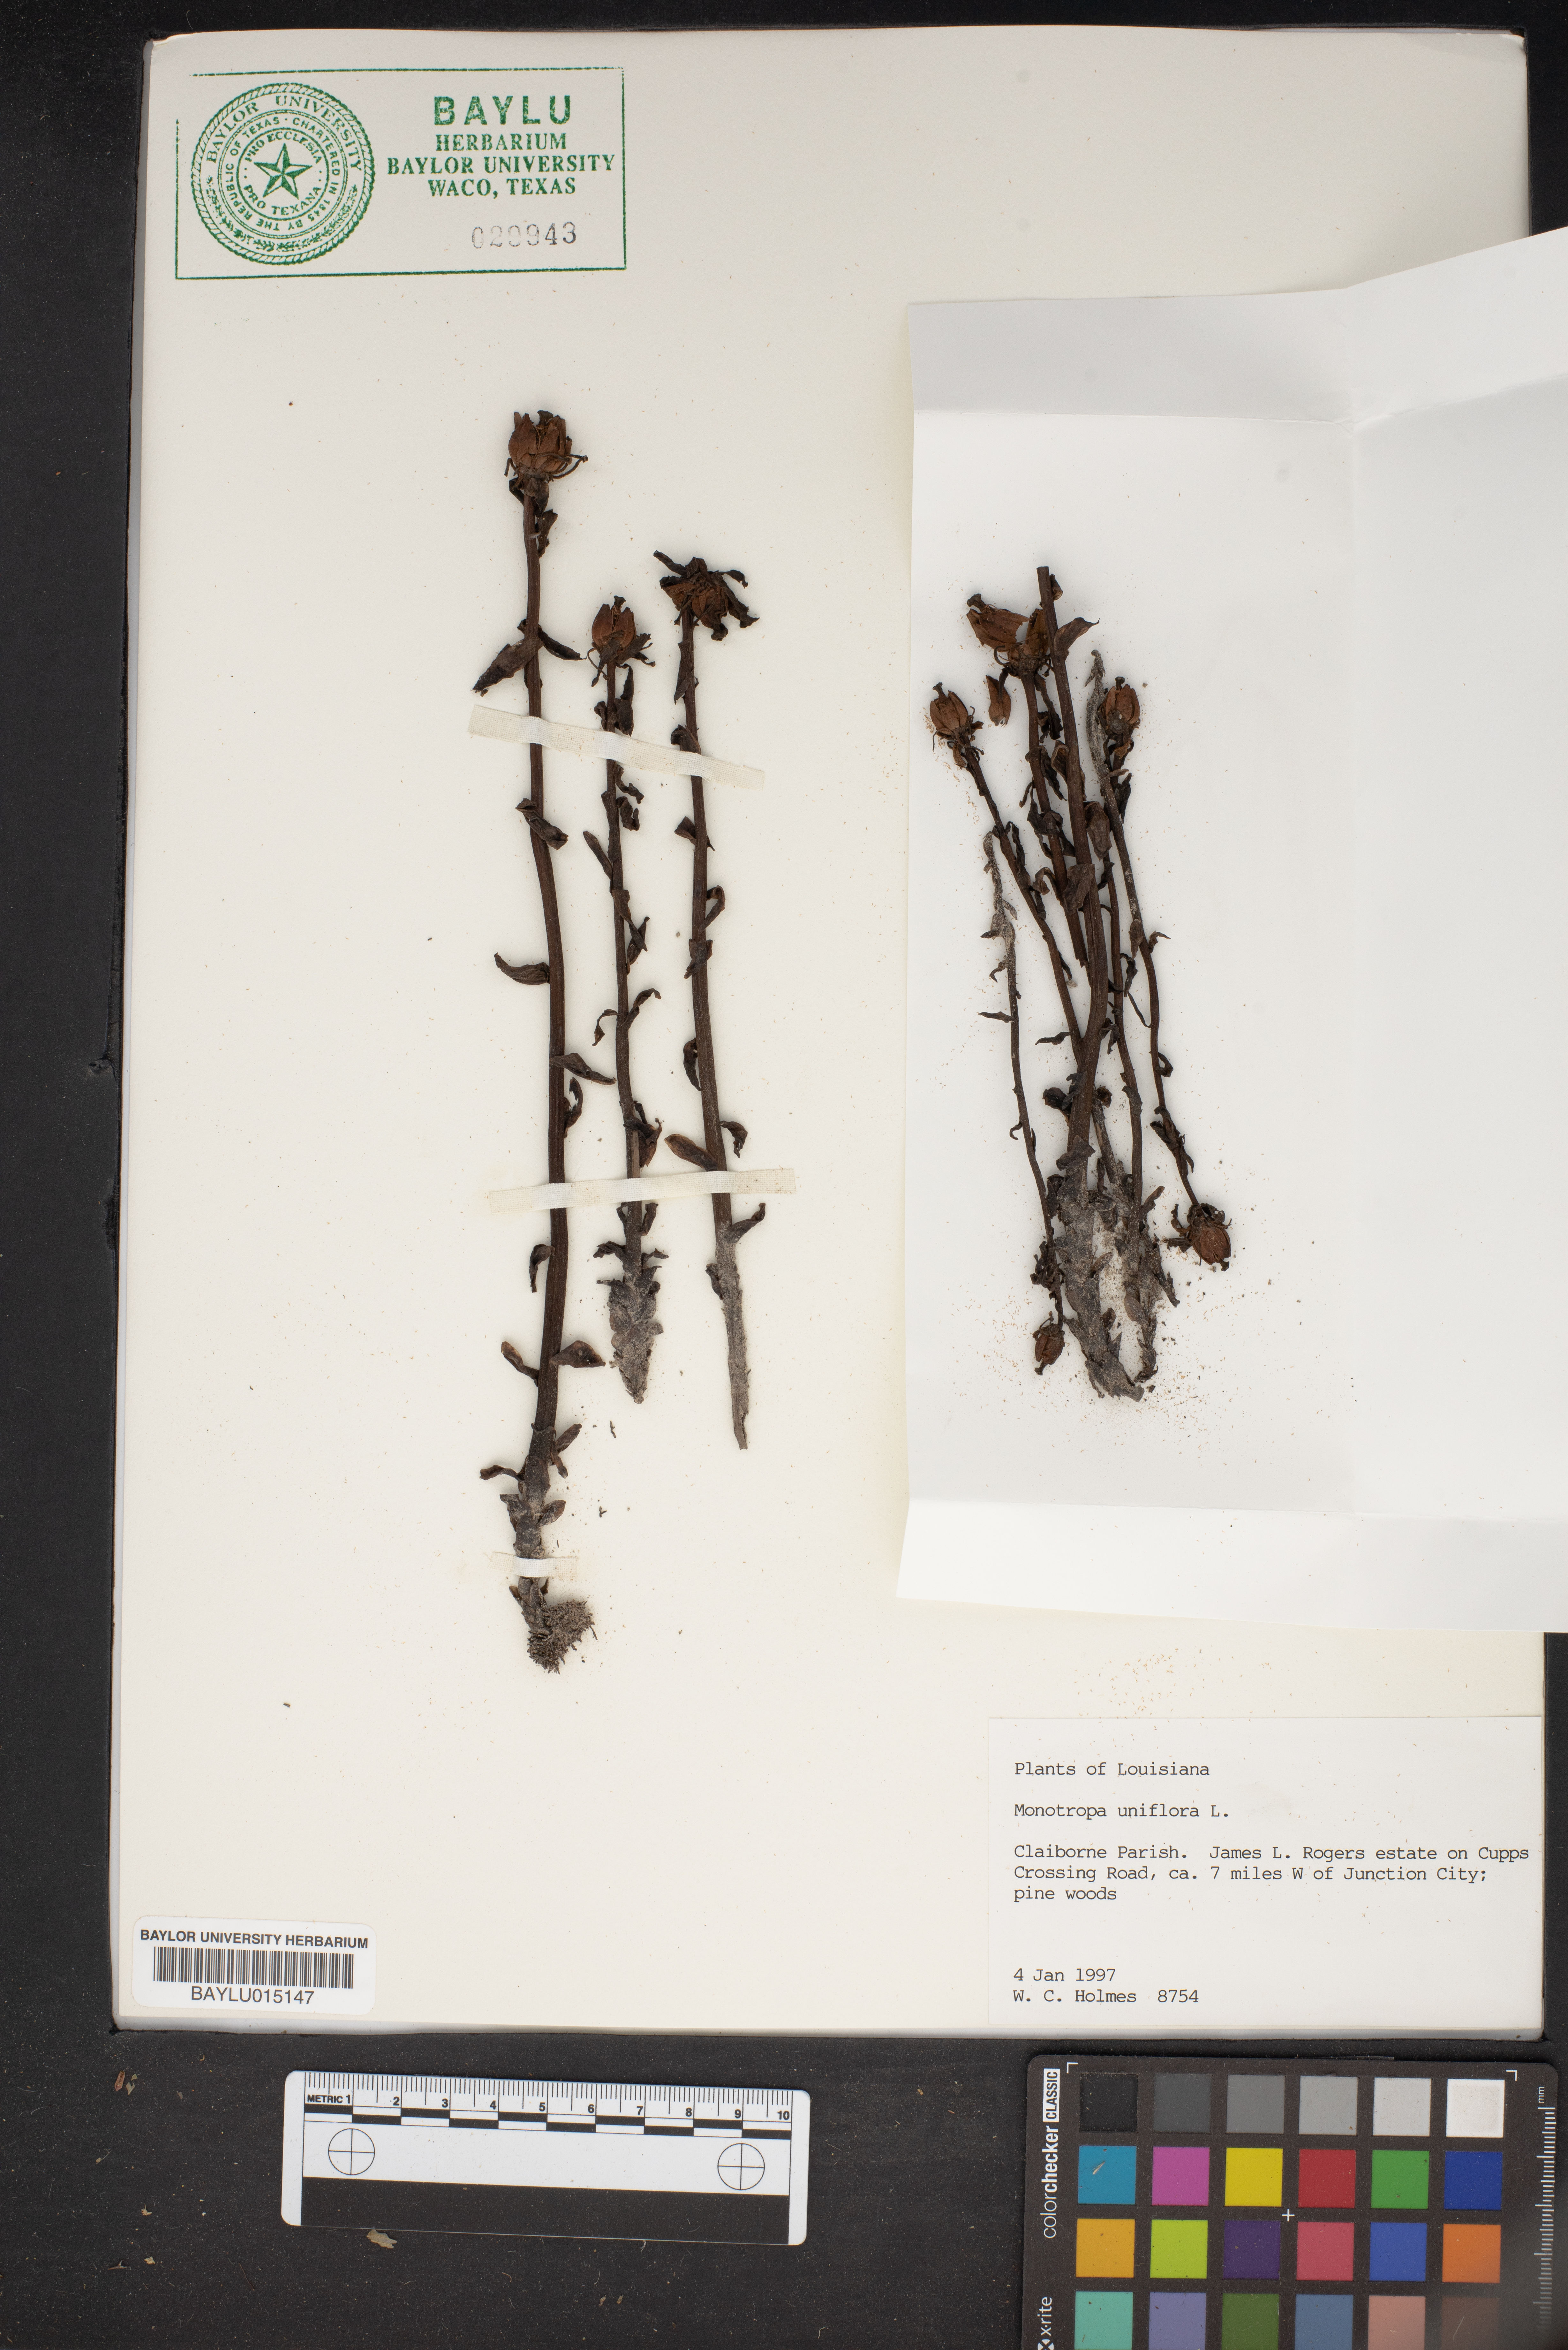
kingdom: Plantae
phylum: Tracheophyta
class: Magnoliopsida
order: Ericales
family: Ericaceae
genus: Monotropa
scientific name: Monotropa uniflora
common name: Convulsion root
